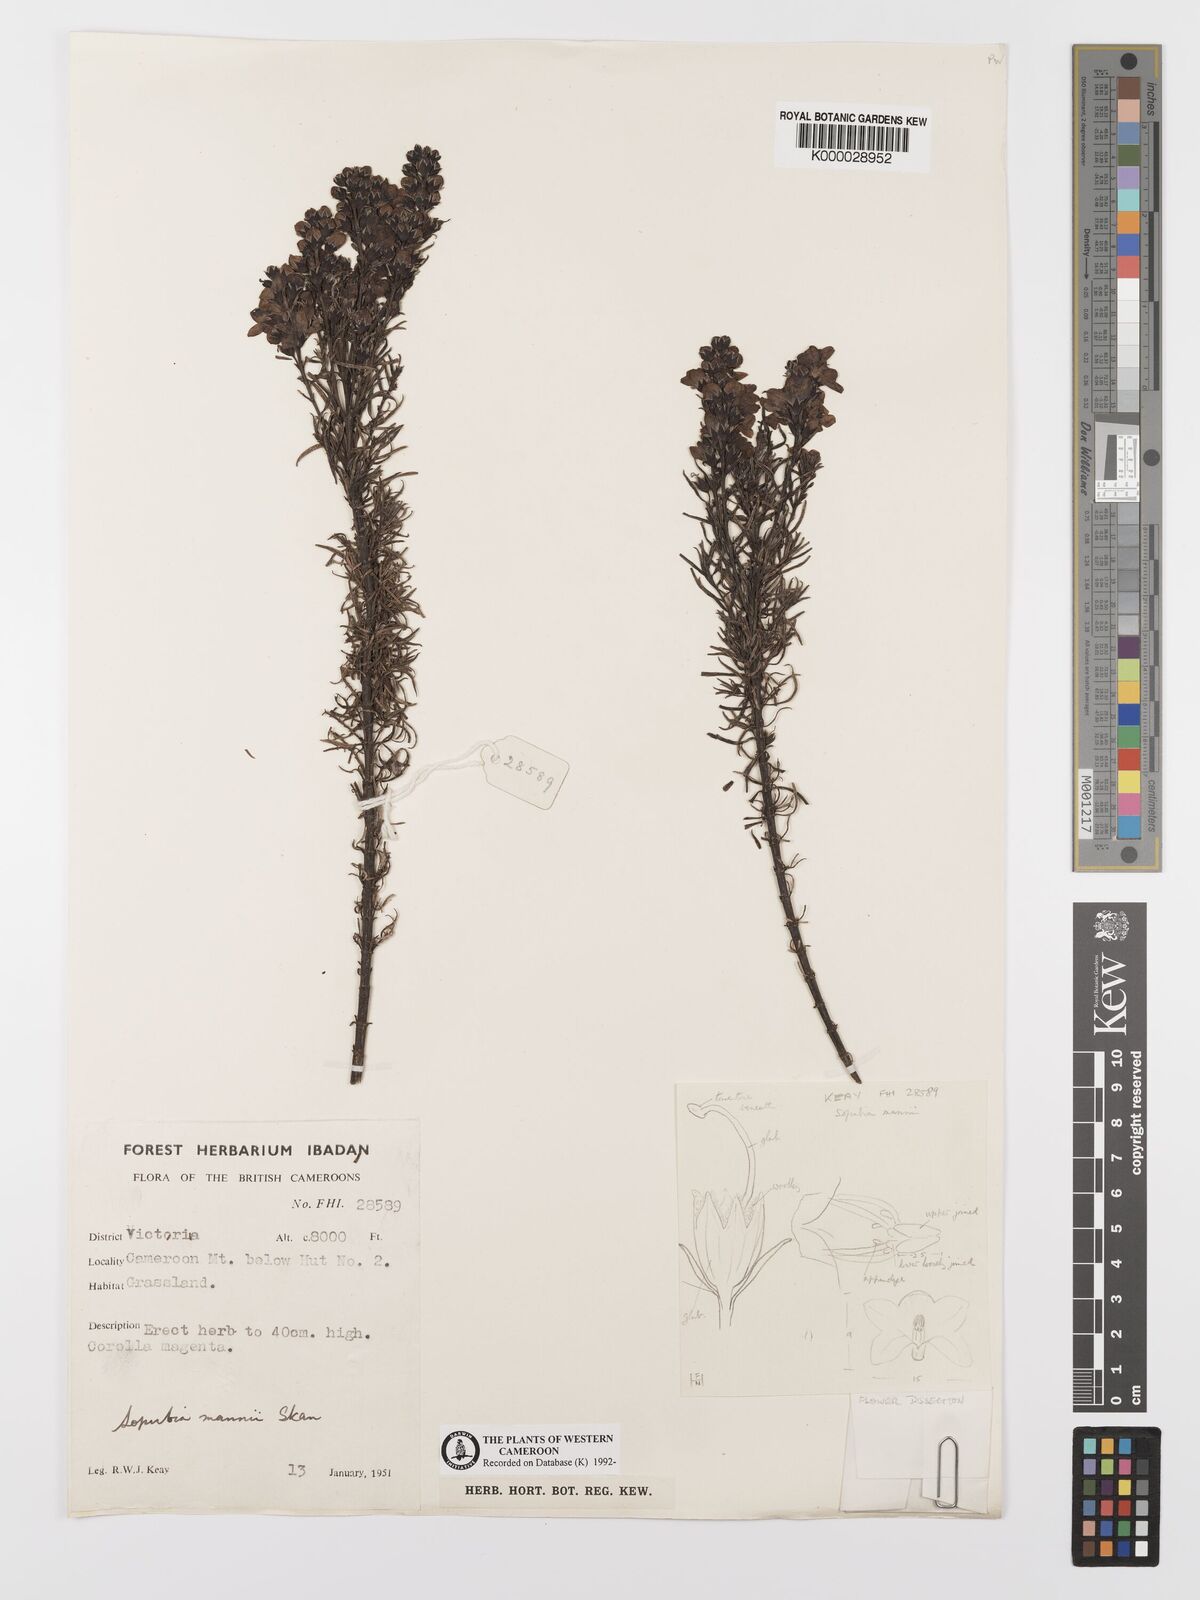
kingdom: Plantae
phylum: Tracheophyta
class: Magnoliopsida
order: Lamiales
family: Orobanchaceae
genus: Sopubia
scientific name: Sopubia mannii
